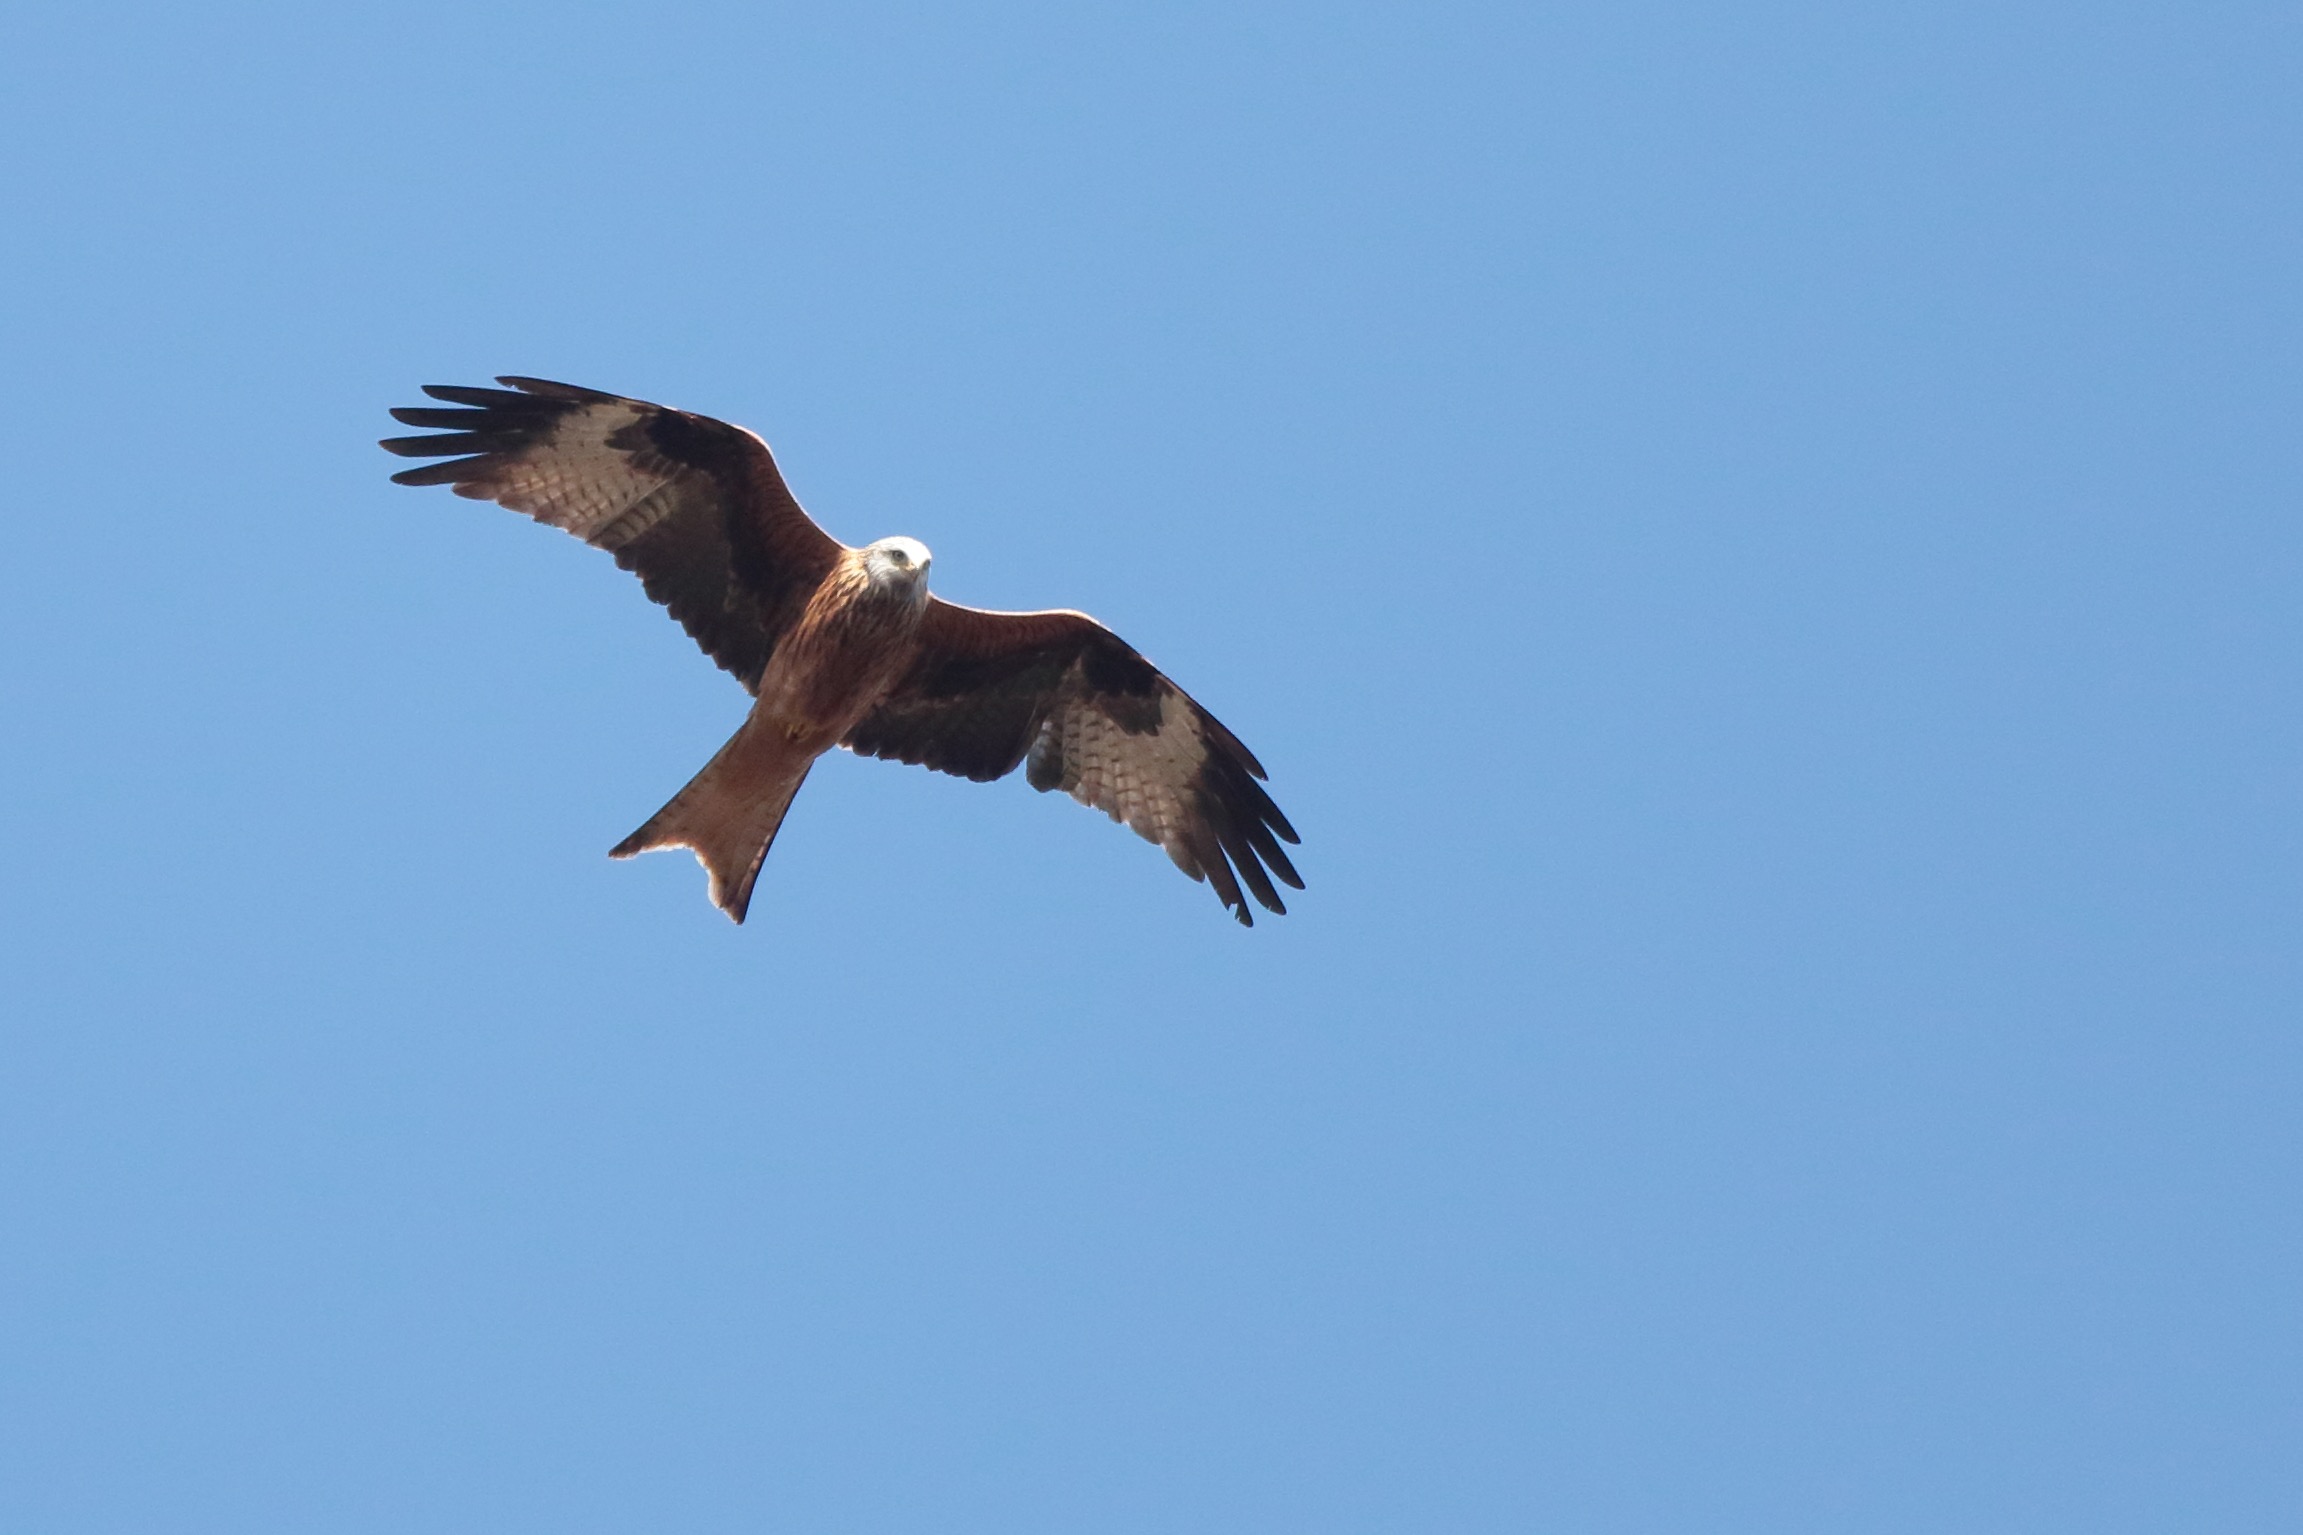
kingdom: Animalia
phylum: Chordata
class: Aves
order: Accipitriformes
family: Accipitridae
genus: Milvus
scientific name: Milvus milvus
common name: Rød glente
